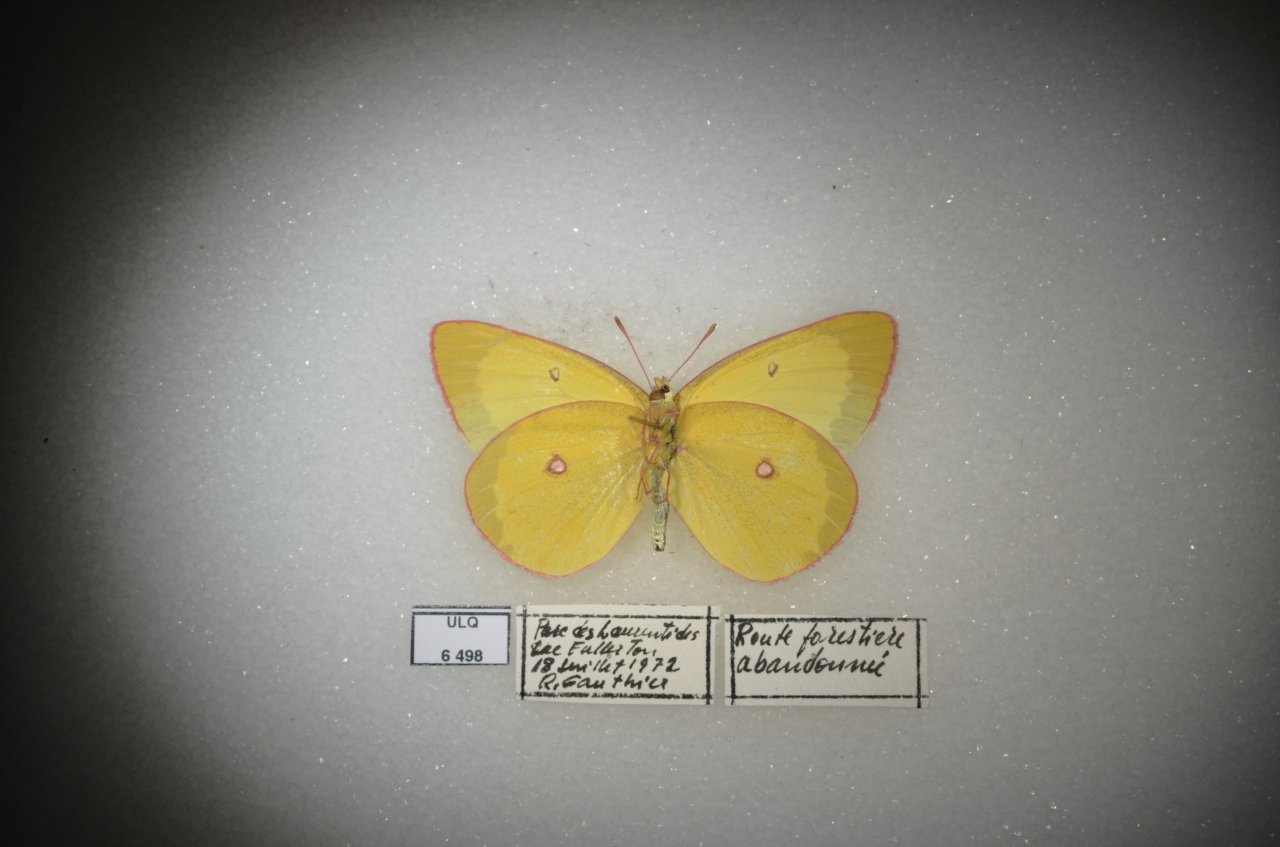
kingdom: Animalia
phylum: Arthropoda
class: Insecta
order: Lepidoptera
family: Pieridae
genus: Colias
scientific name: Colias interior
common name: Pink-edged Sulphur
